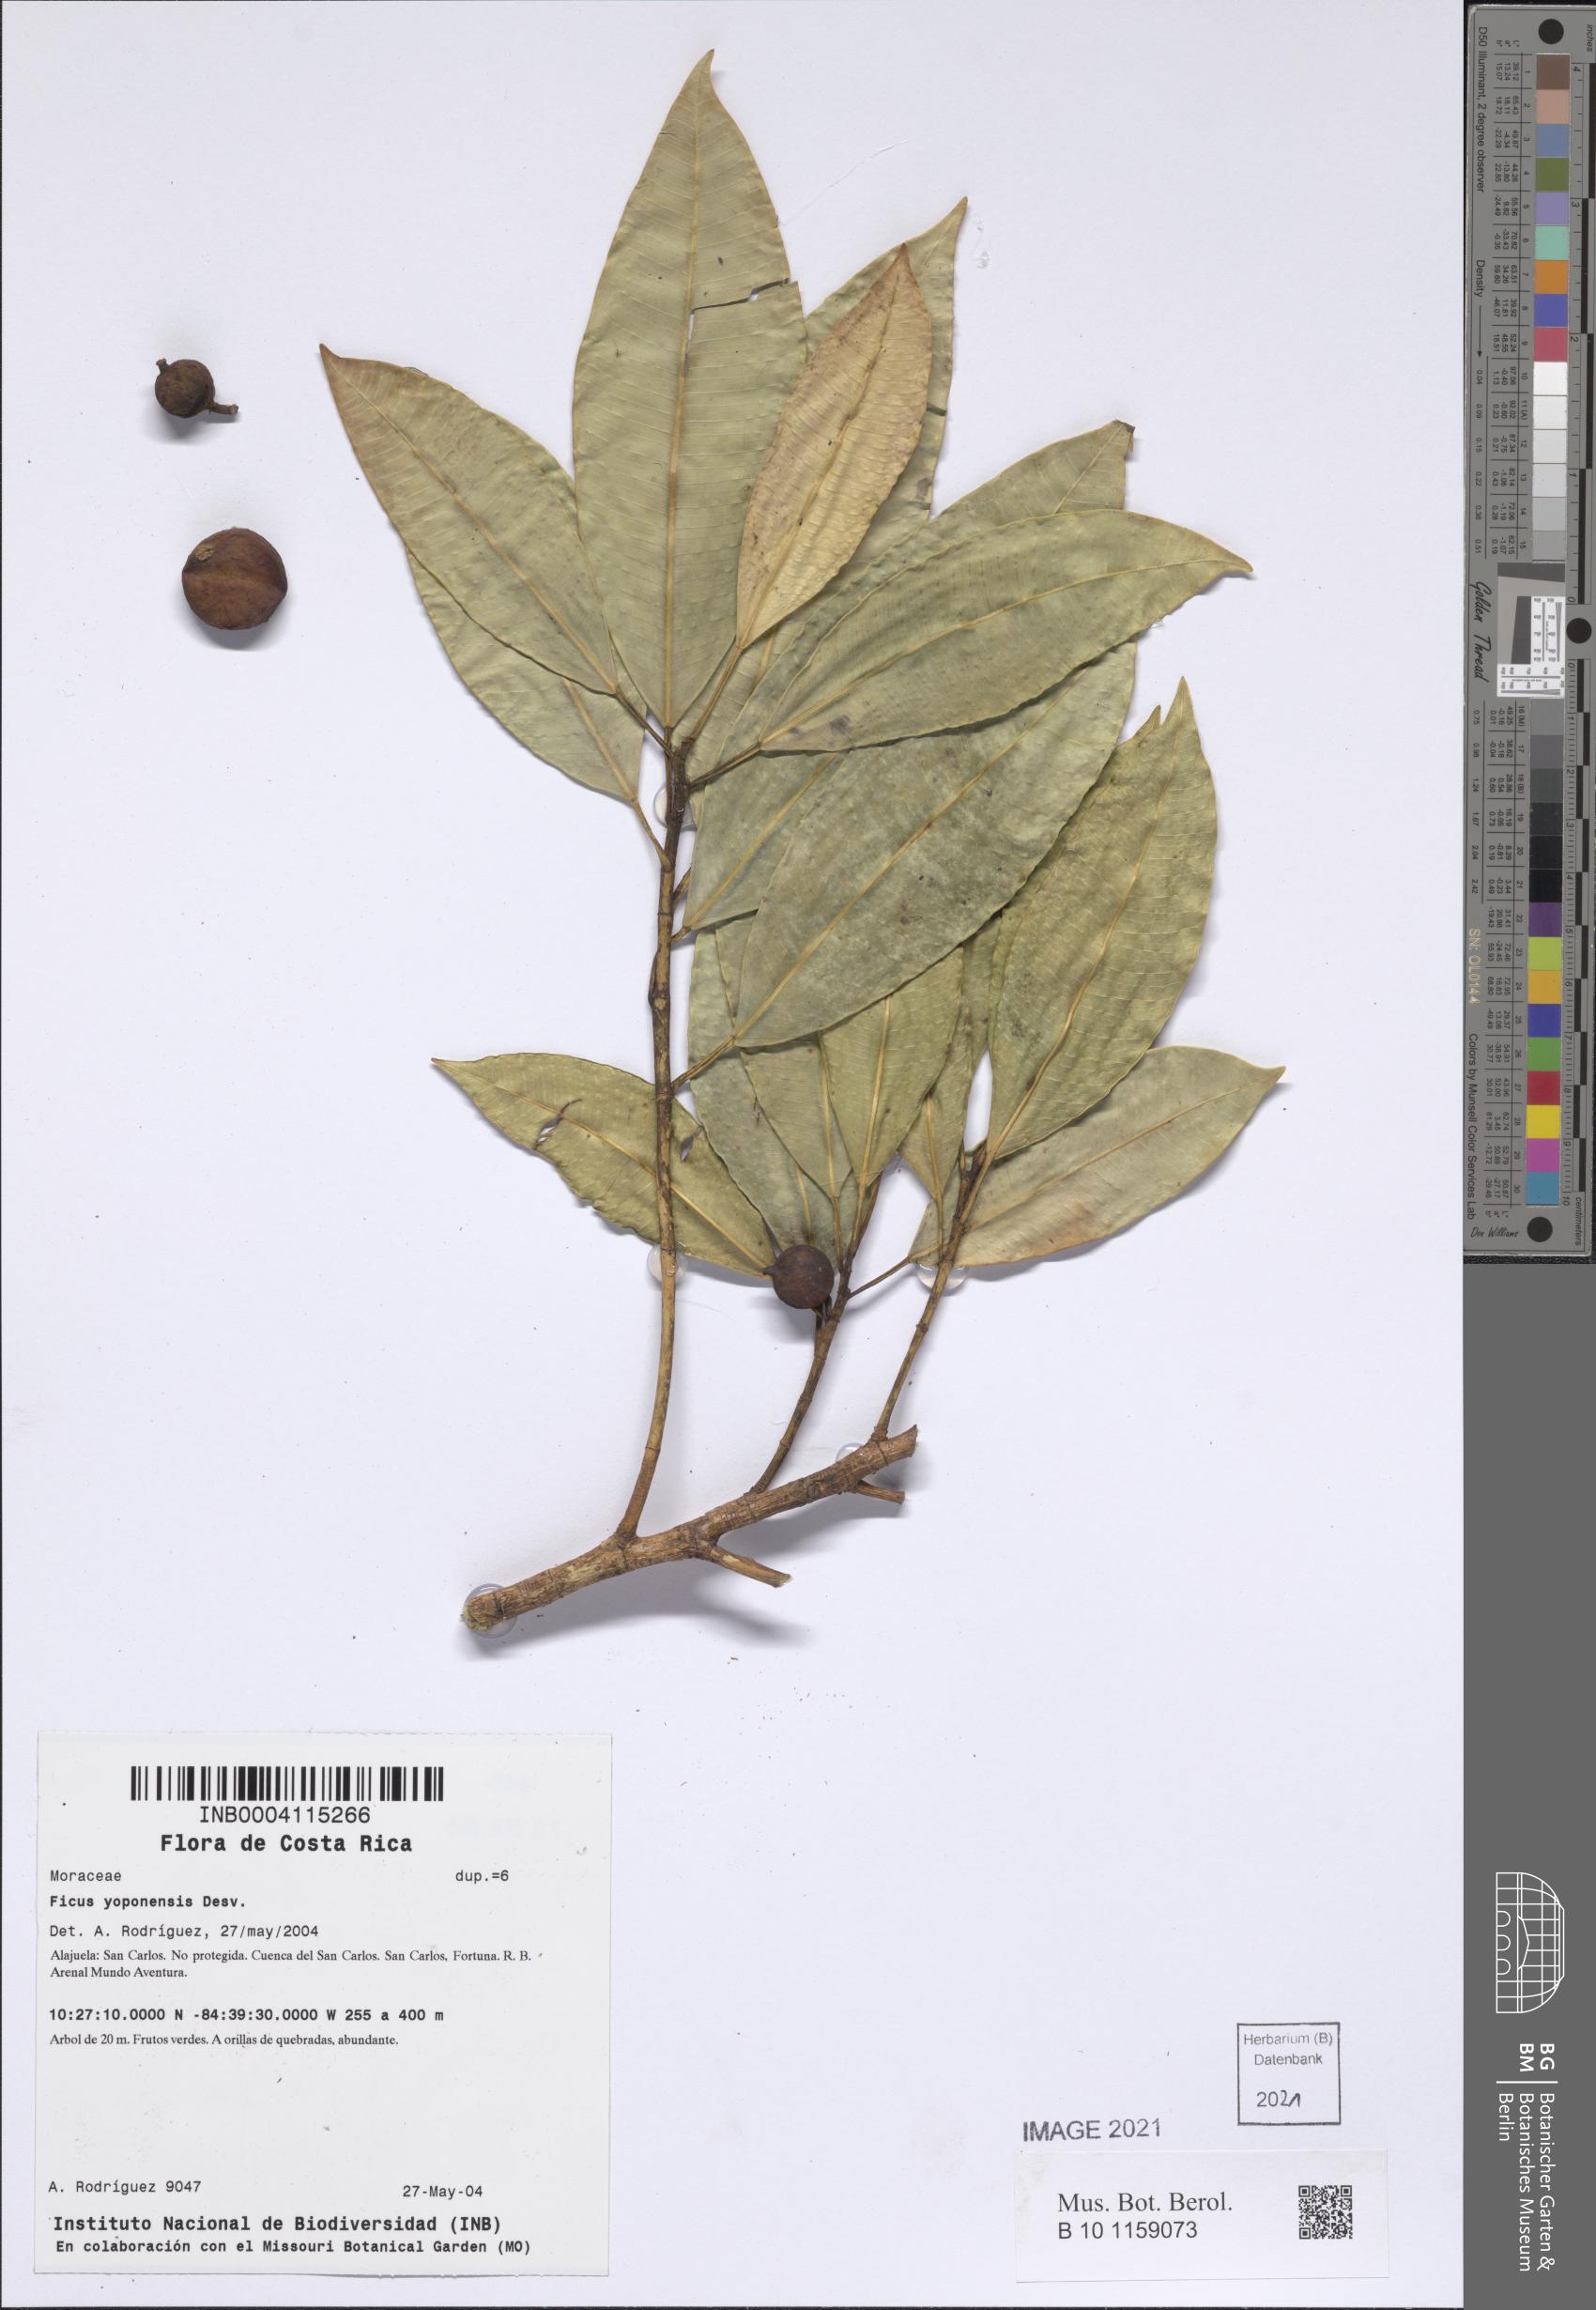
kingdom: Plantae
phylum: Tracheophyta
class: Magnoliopsida
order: Rosales
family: Moraceae
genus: Ficus
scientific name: Ficus yoponensis
